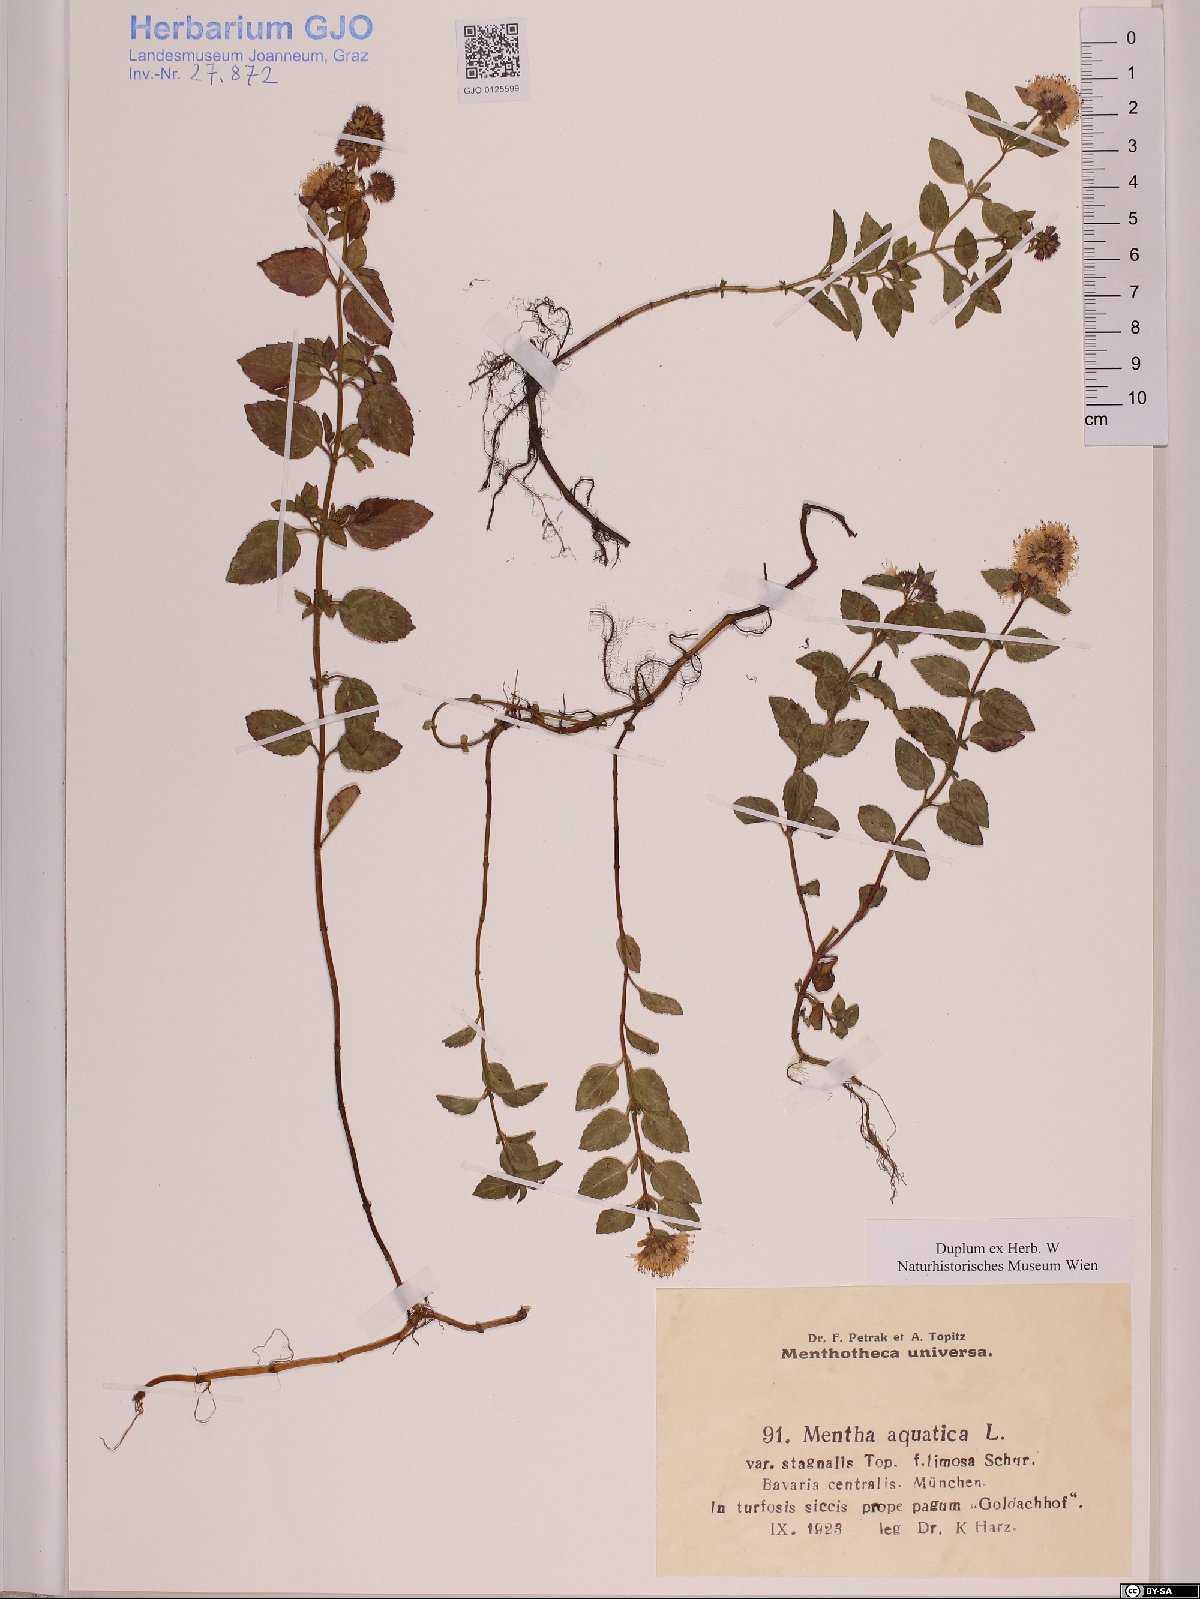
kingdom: Plantae
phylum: Tracheophyta
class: Magnoliopsida
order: Lamiales
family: Lamiaceae
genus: Mentha
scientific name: Mentha aquatica
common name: Water mint
